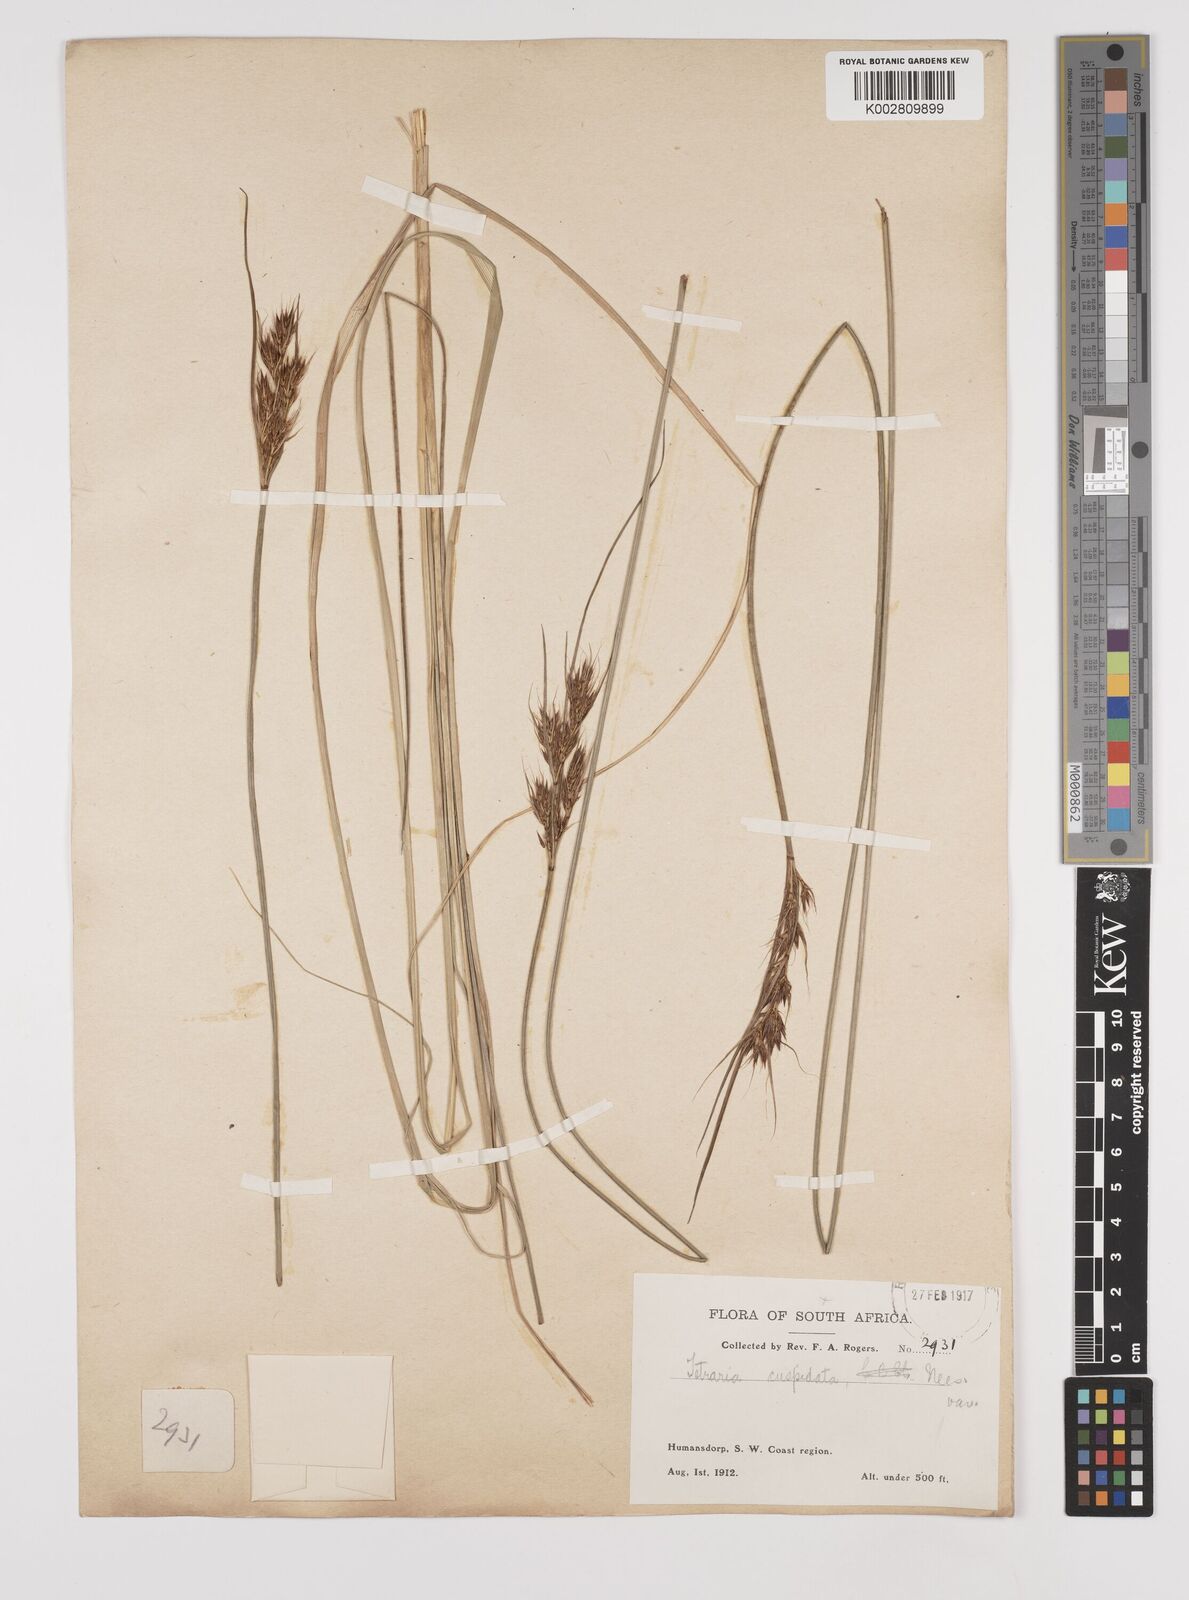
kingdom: Plantae
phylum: Tracheophyta
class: Liliopsida
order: Poales
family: Cyperaceae
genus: Schoenus
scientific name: Schoenus loreus
